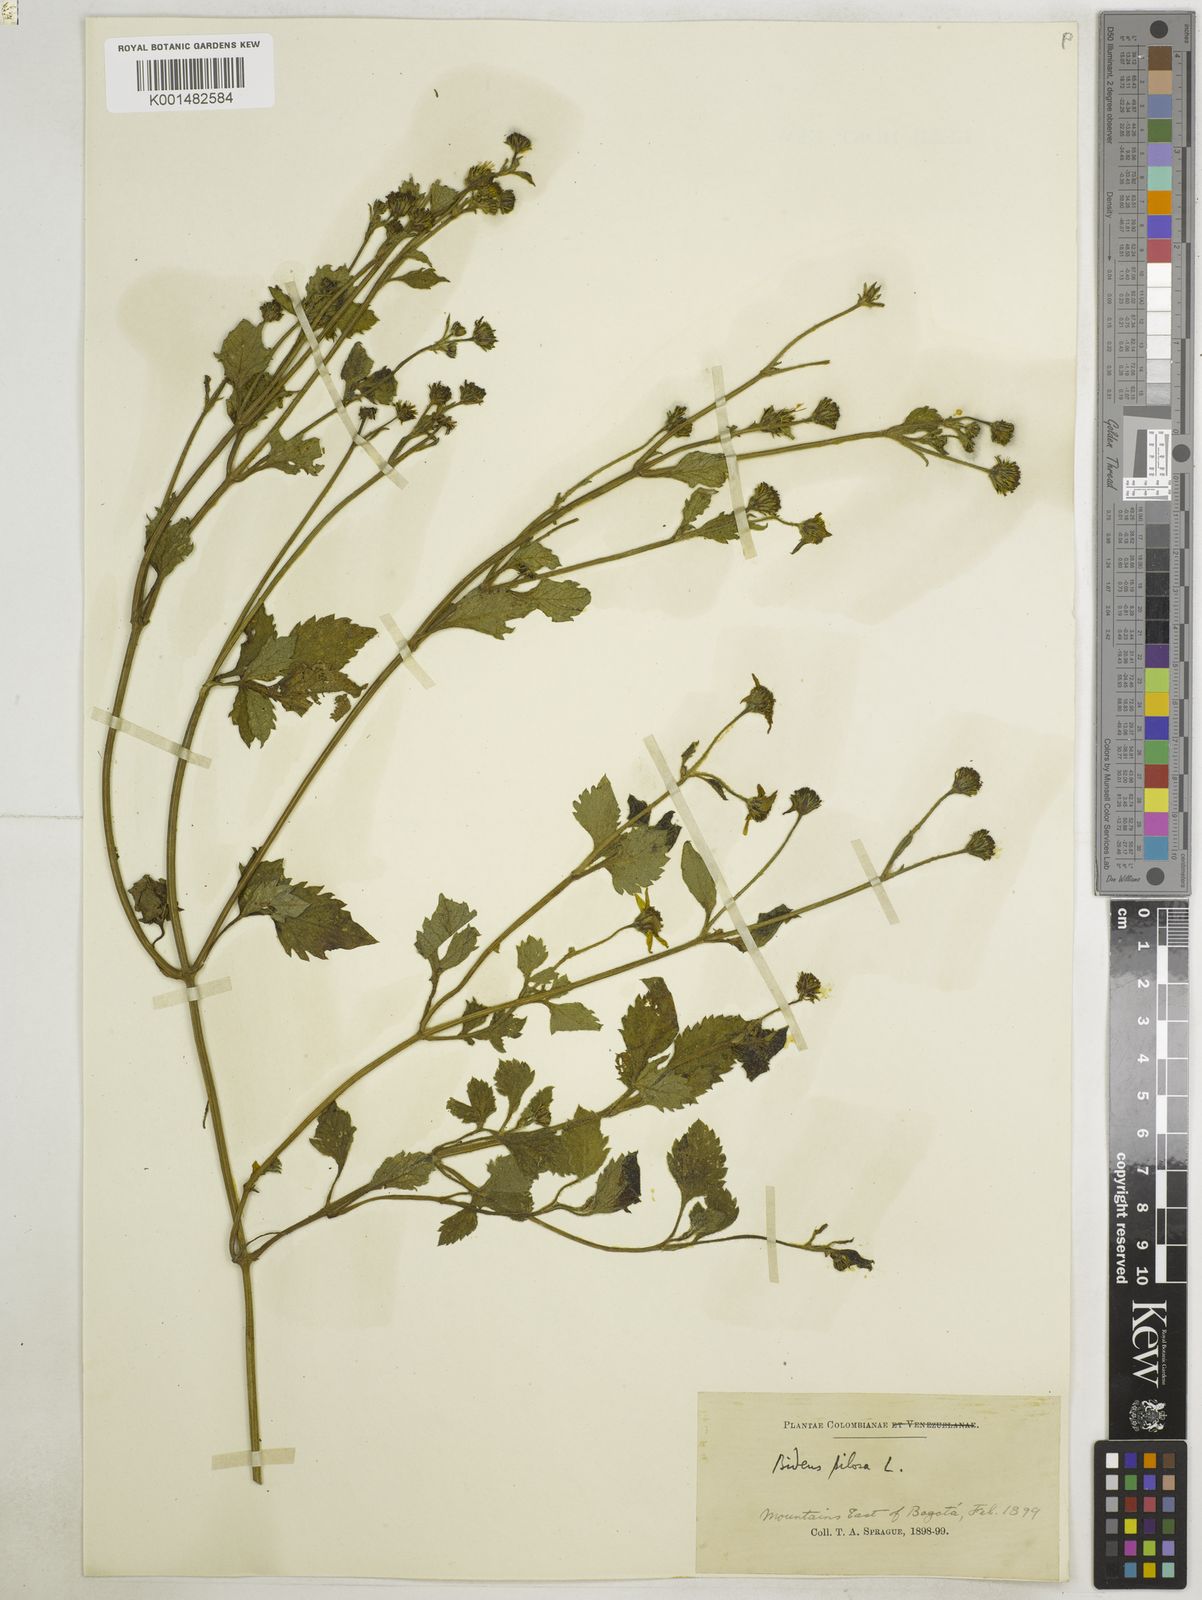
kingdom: Plantae
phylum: Tracheophyta
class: Magnoliopsida
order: Asterales
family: Asteraceae
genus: Bidens
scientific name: Bidens alba
